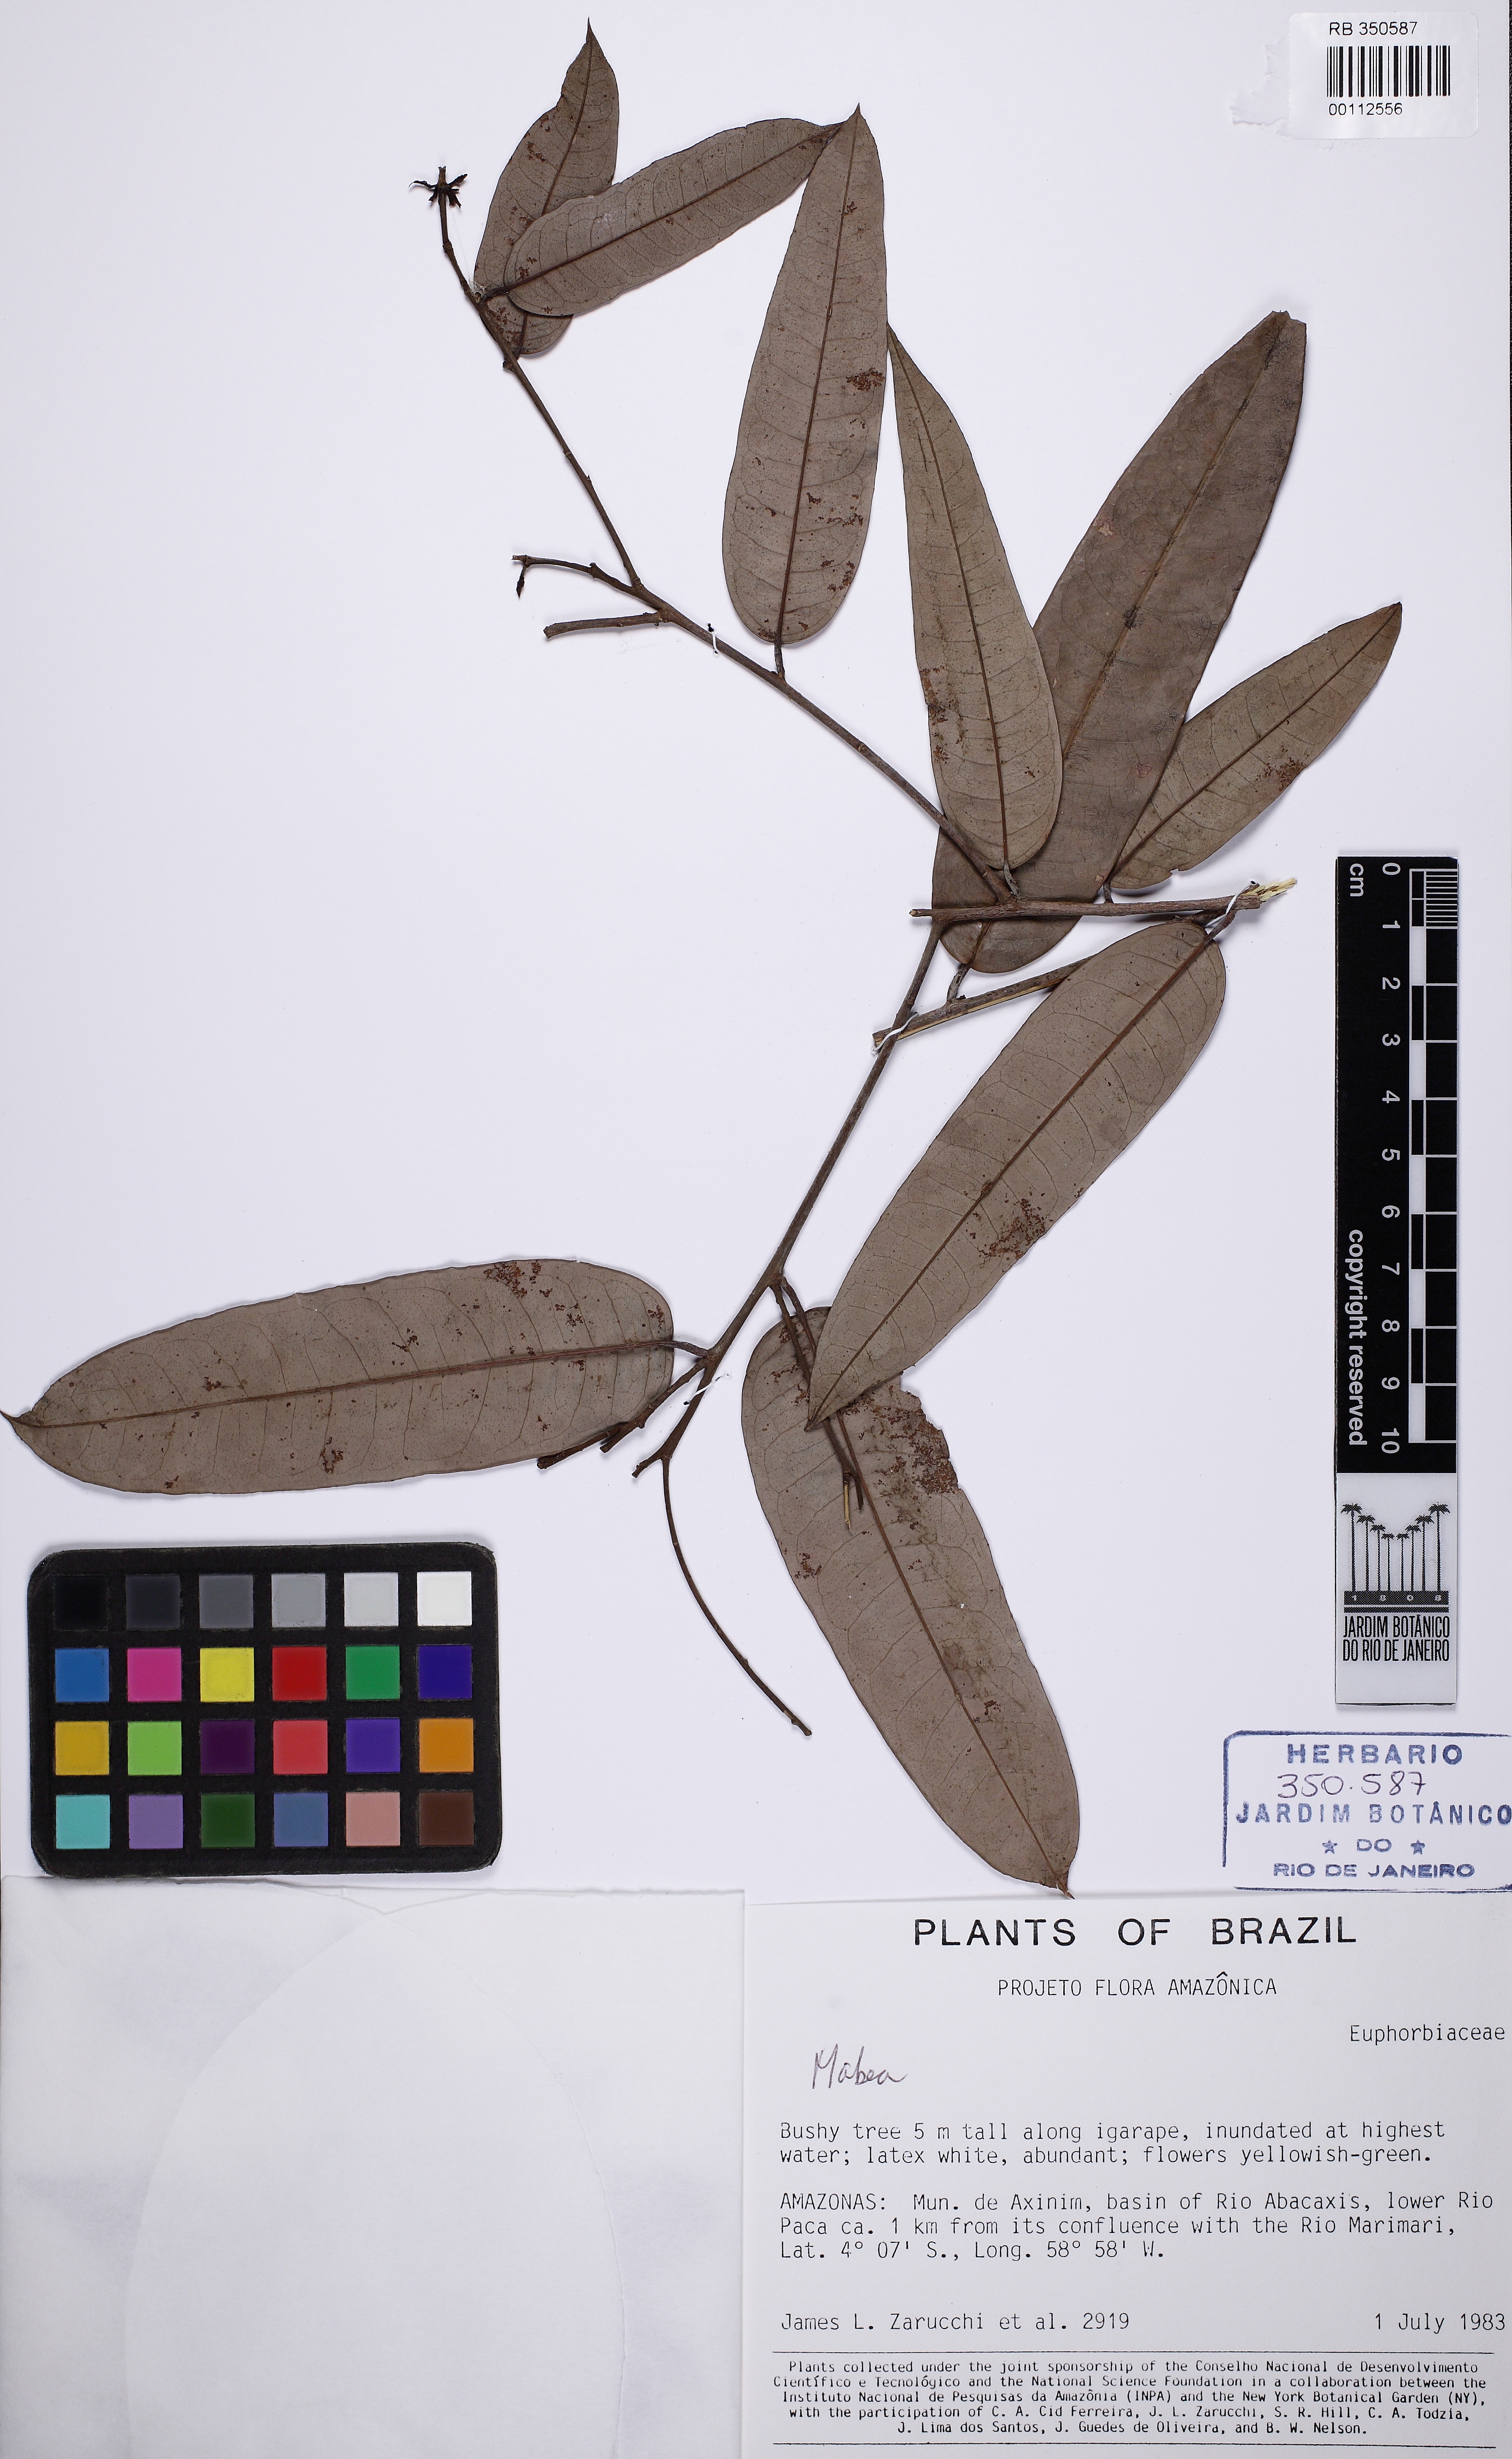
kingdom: Plantae
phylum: Tracheophyta
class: Magnoliopsida
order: Malpighiales
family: Euphorbiaceae
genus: Mabea
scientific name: Mabea
